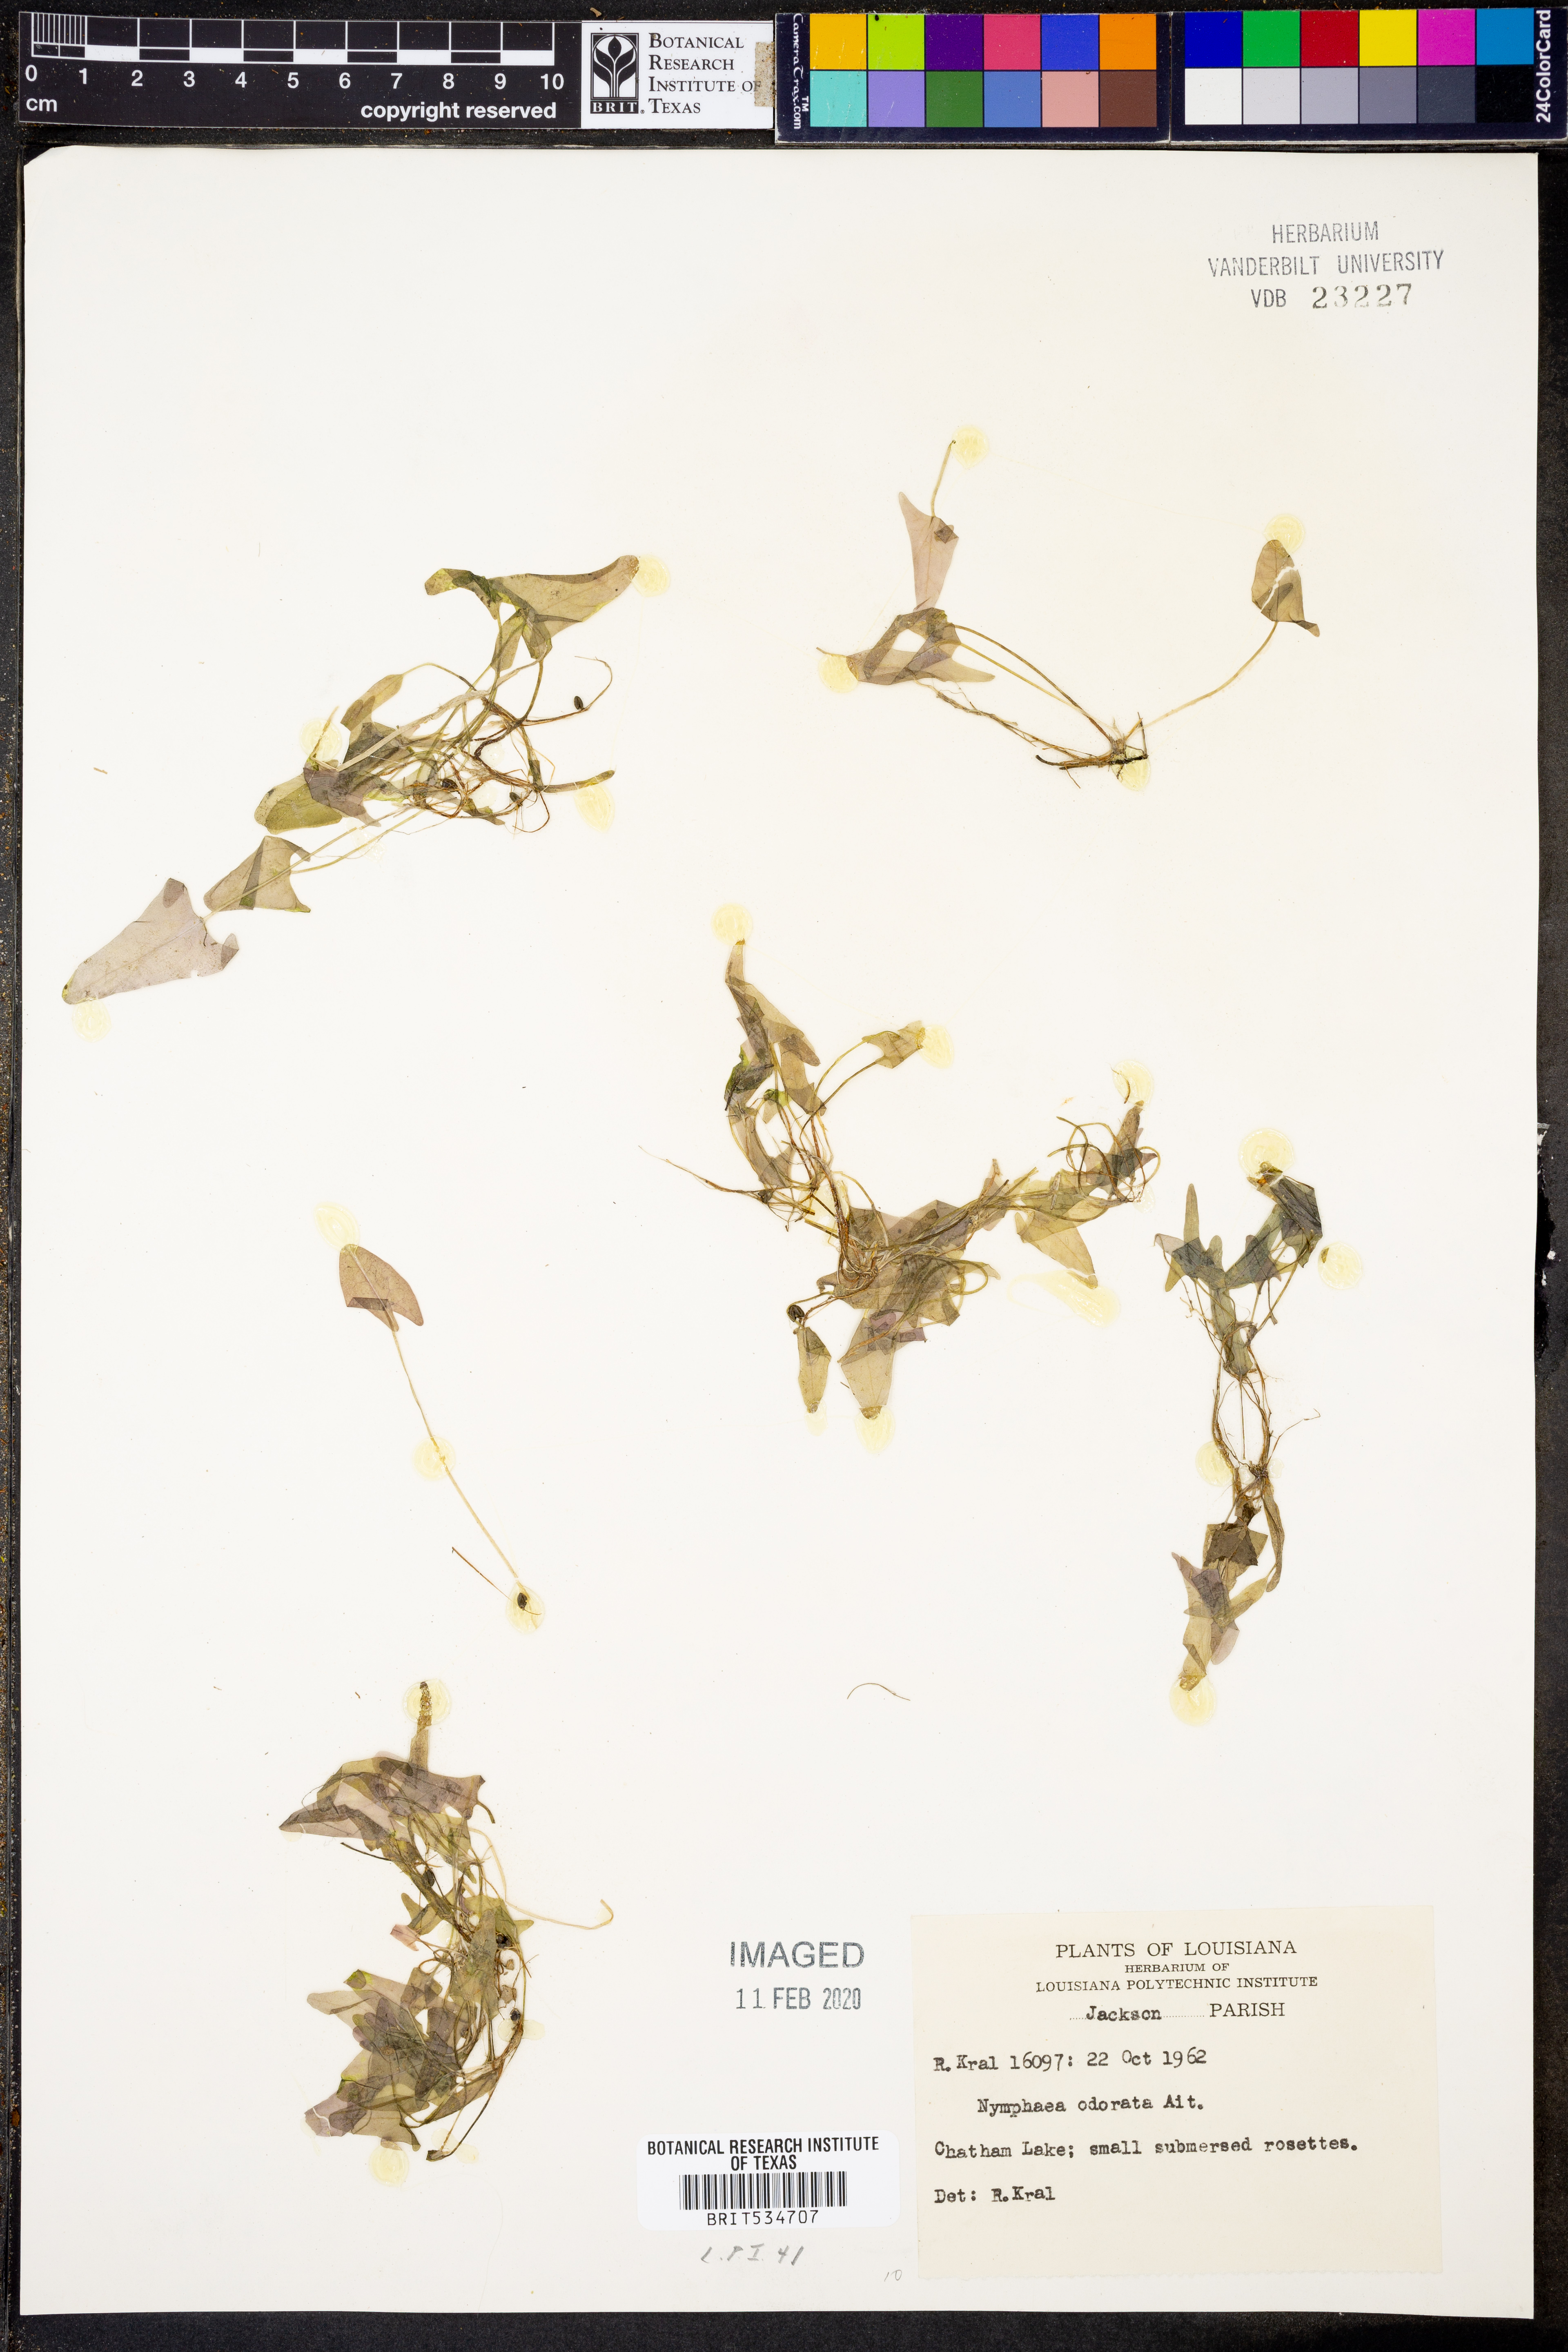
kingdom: Plantae
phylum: Tracheophyta
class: Magnoliopsida
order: Nymphaeales
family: Nymphaeaceae
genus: Nymphaea
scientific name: Nymphaea odorata
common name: Fragrant water-lily
